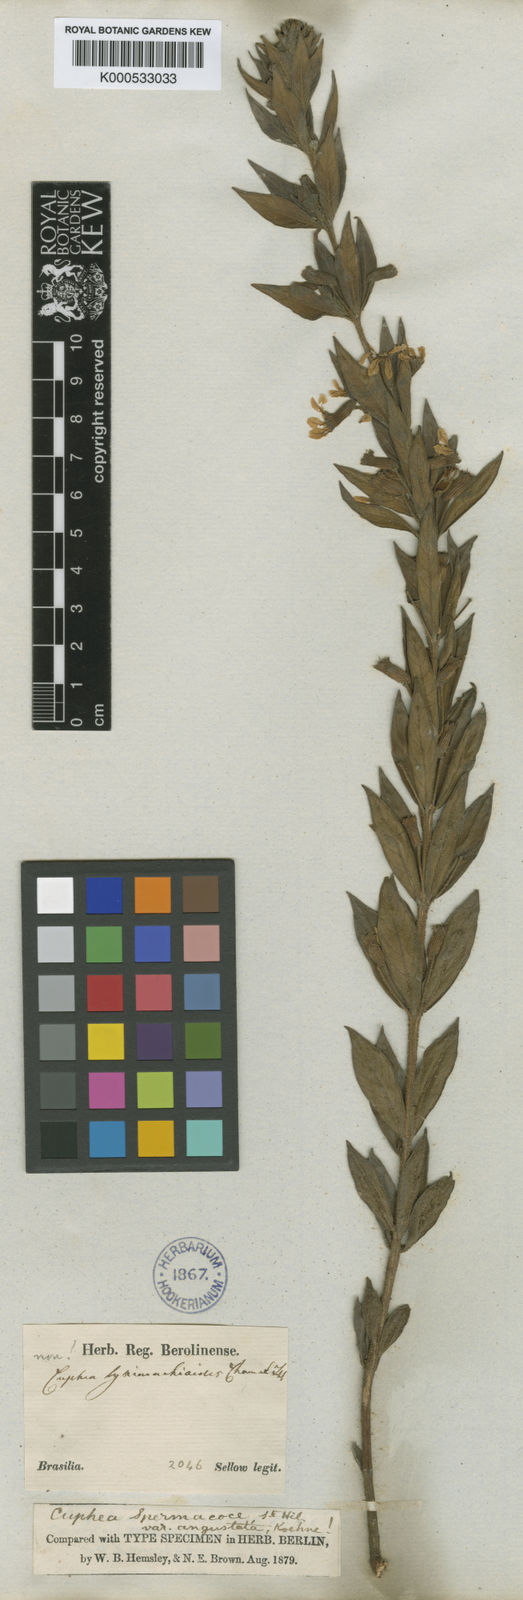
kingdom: Plantae
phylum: Tracheophyta
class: Magnoliopsida
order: Myrtales
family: Lythraceae
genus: Cuphea
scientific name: Cuphea spermacoce
